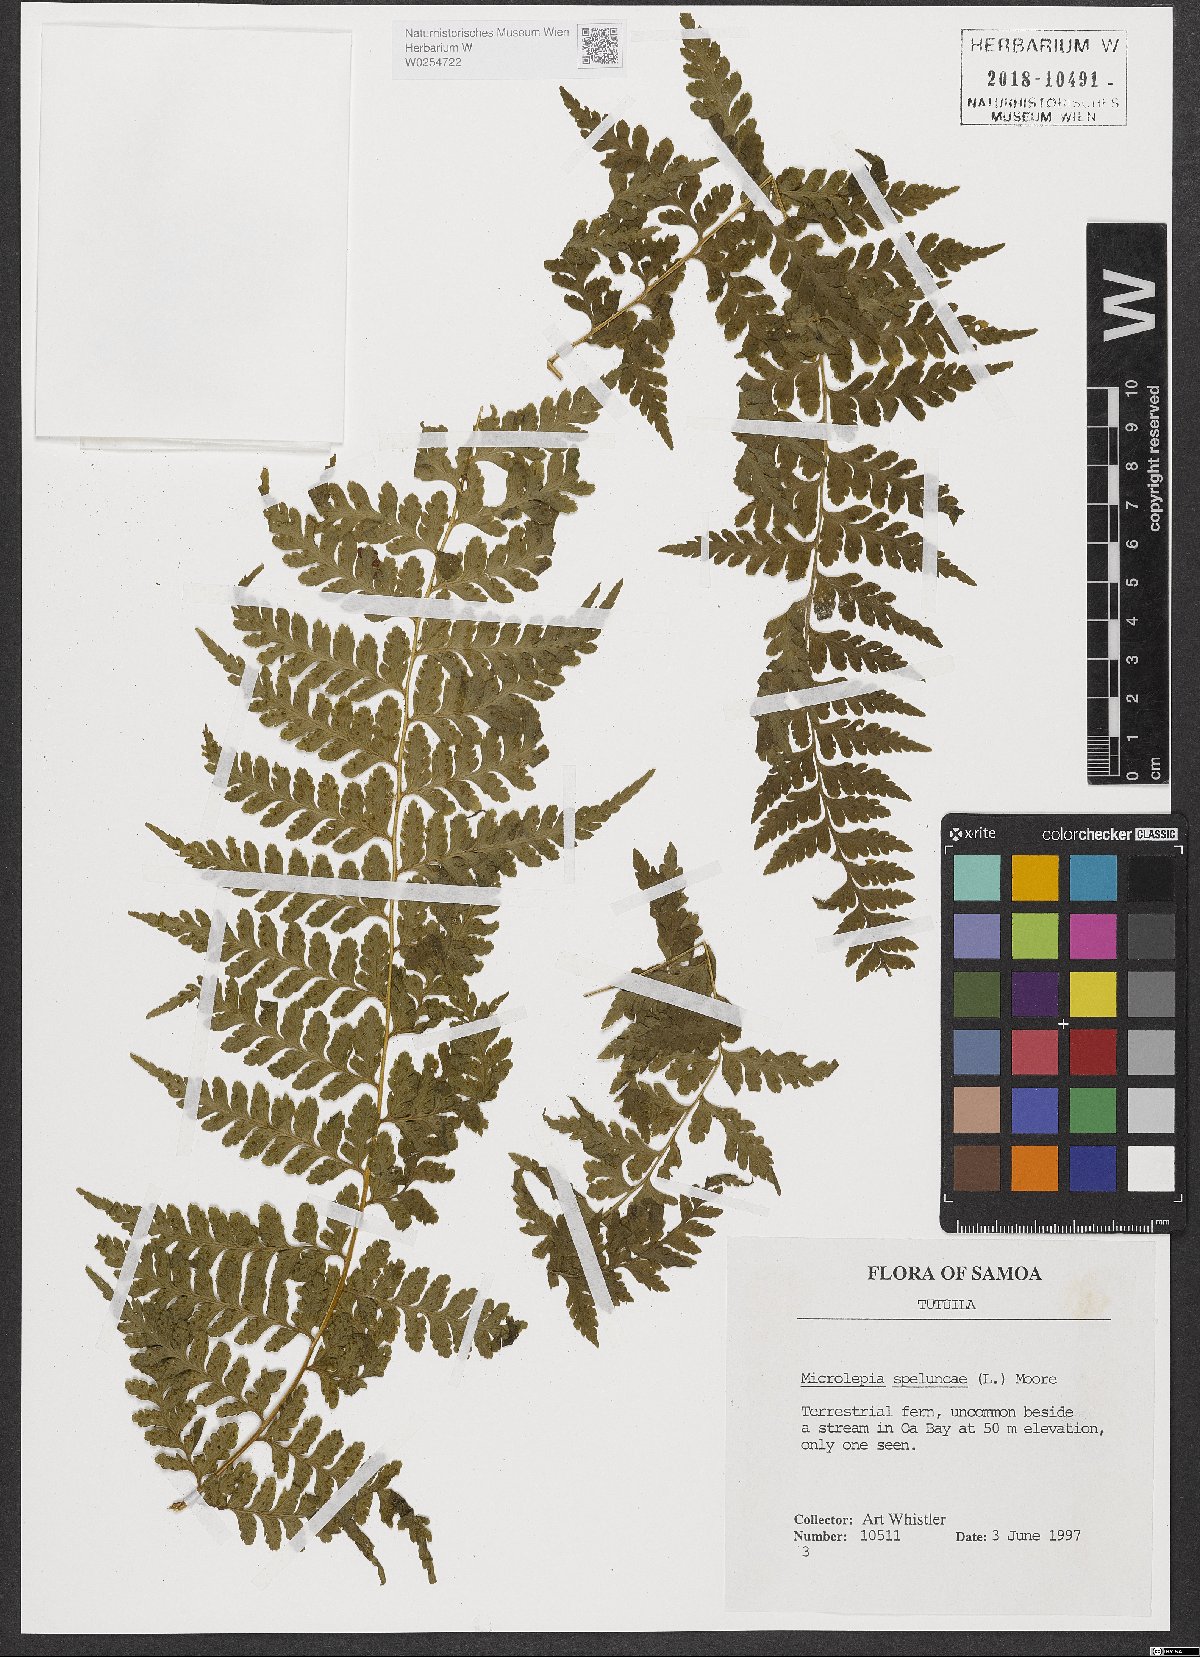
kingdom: Plantae
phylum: Tracheophyta
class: Polypodiopsida
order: Polypodiales
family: Dennstaedtiaceae
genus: Microlepia
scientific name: Microlepia speluncae
